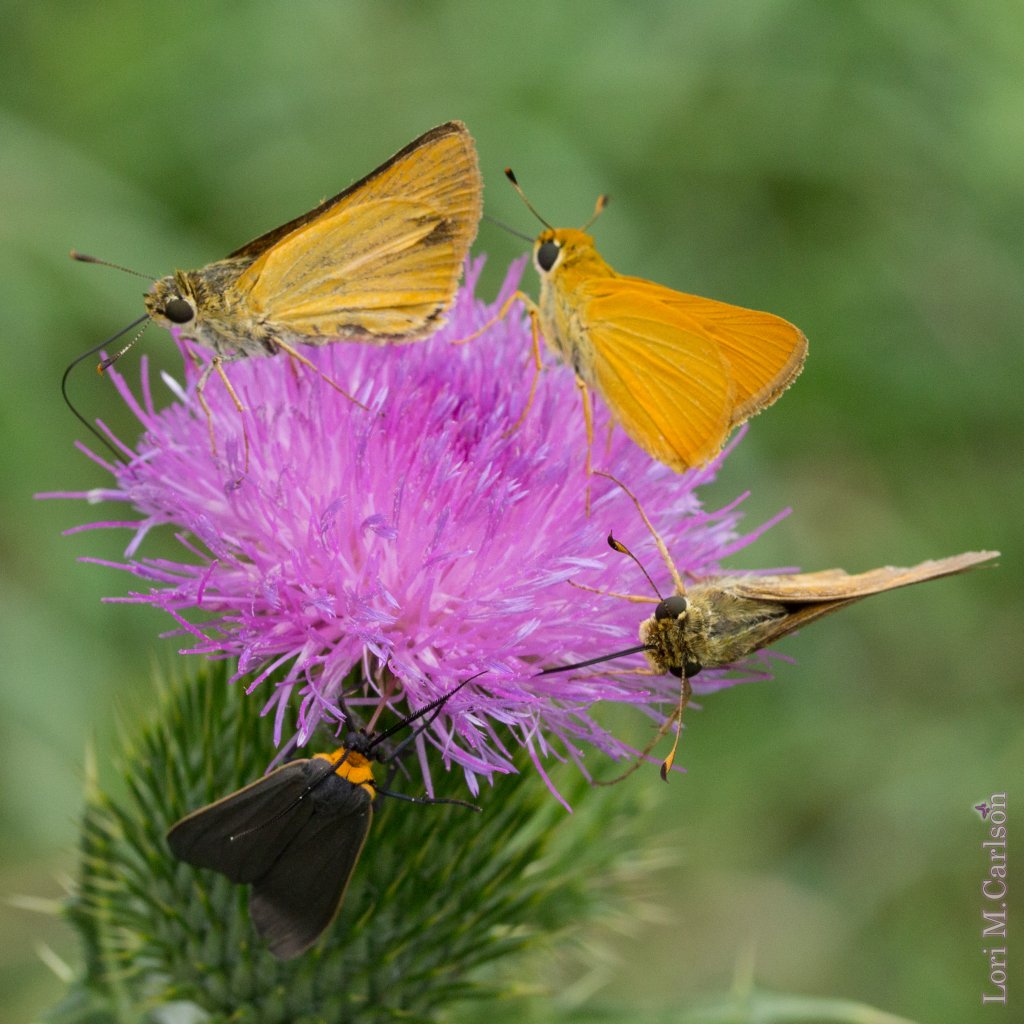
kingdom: Animalia
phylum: Arthropoda
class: Insecta
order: Lepidoptera
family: Hesperiidae
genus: Atrytone
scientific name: Atrytone delaware
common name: Delaware Skipper
